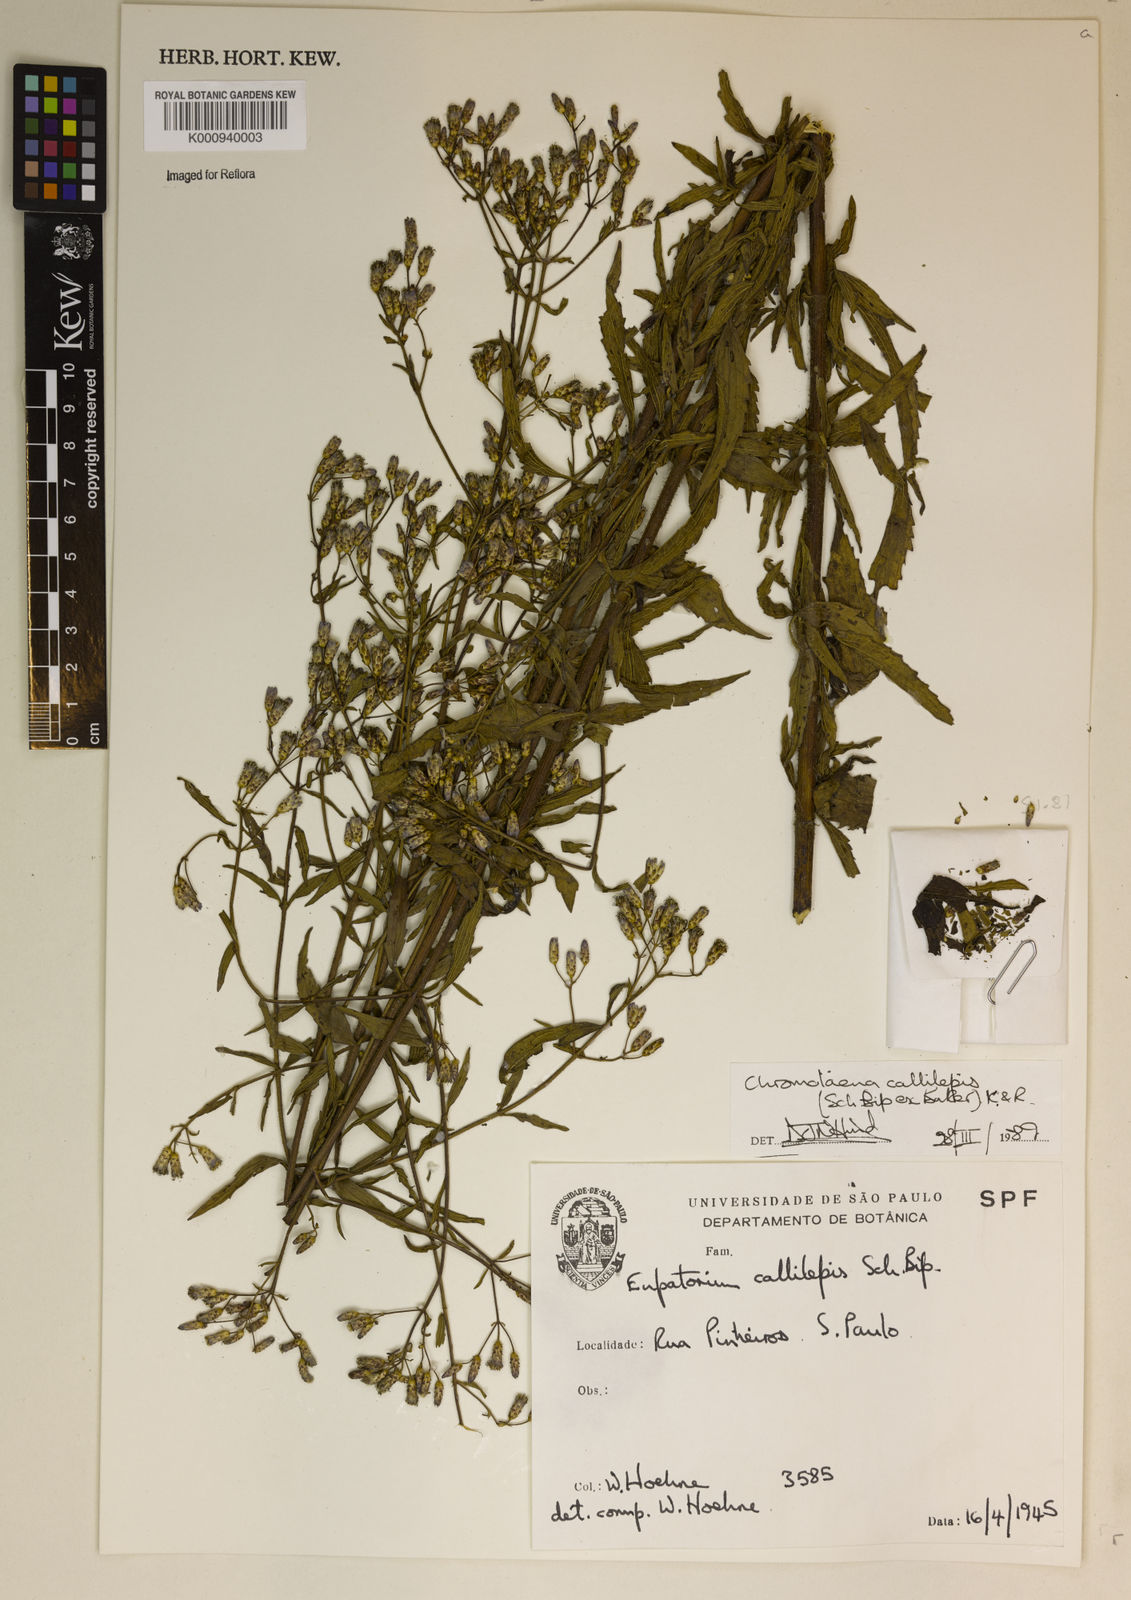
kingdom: Plantae
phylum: Tracheophyta
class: Magnoliopsida
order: Asterales
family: Asteraceae
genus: Chromolaena
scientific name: Chromolaena callilepis
